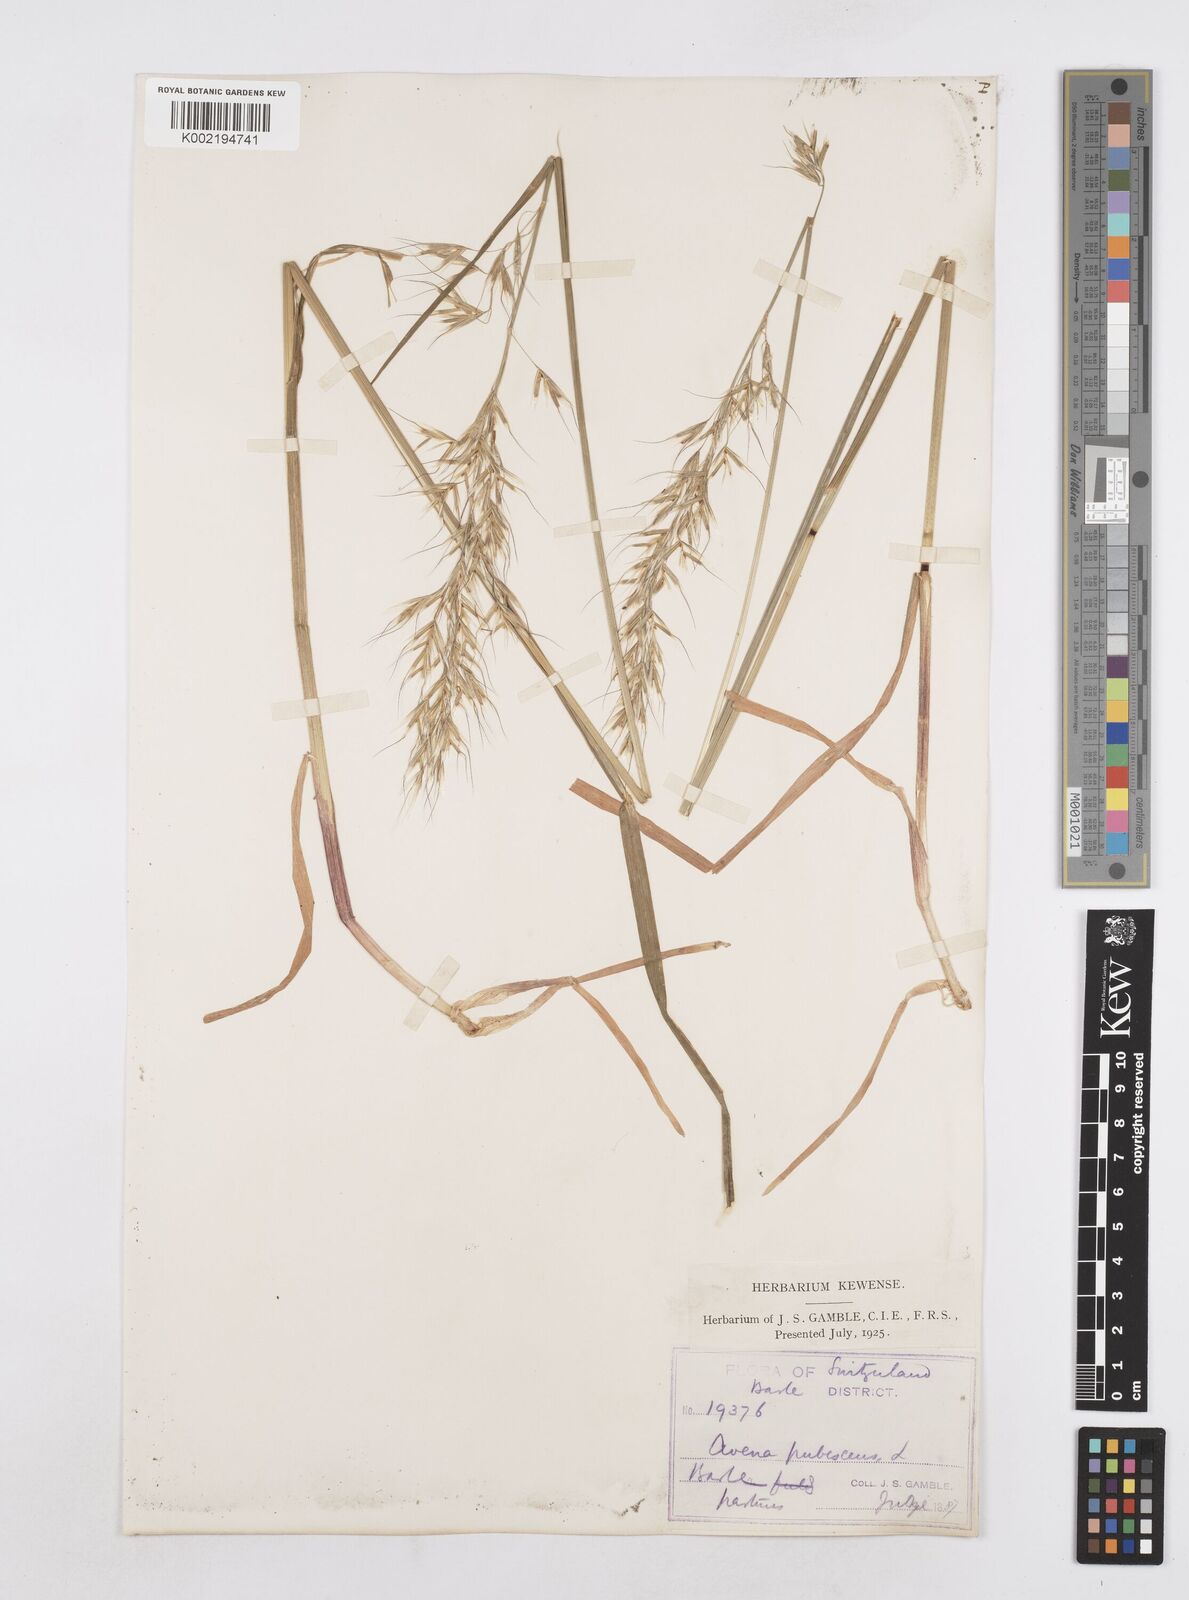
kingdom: Plantae
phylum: Tracheophyta
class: Liliopsida
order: Poales
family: Poaceae
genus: Avenula
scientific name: Avenula pubescens
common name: Downy alpine oatgrass
